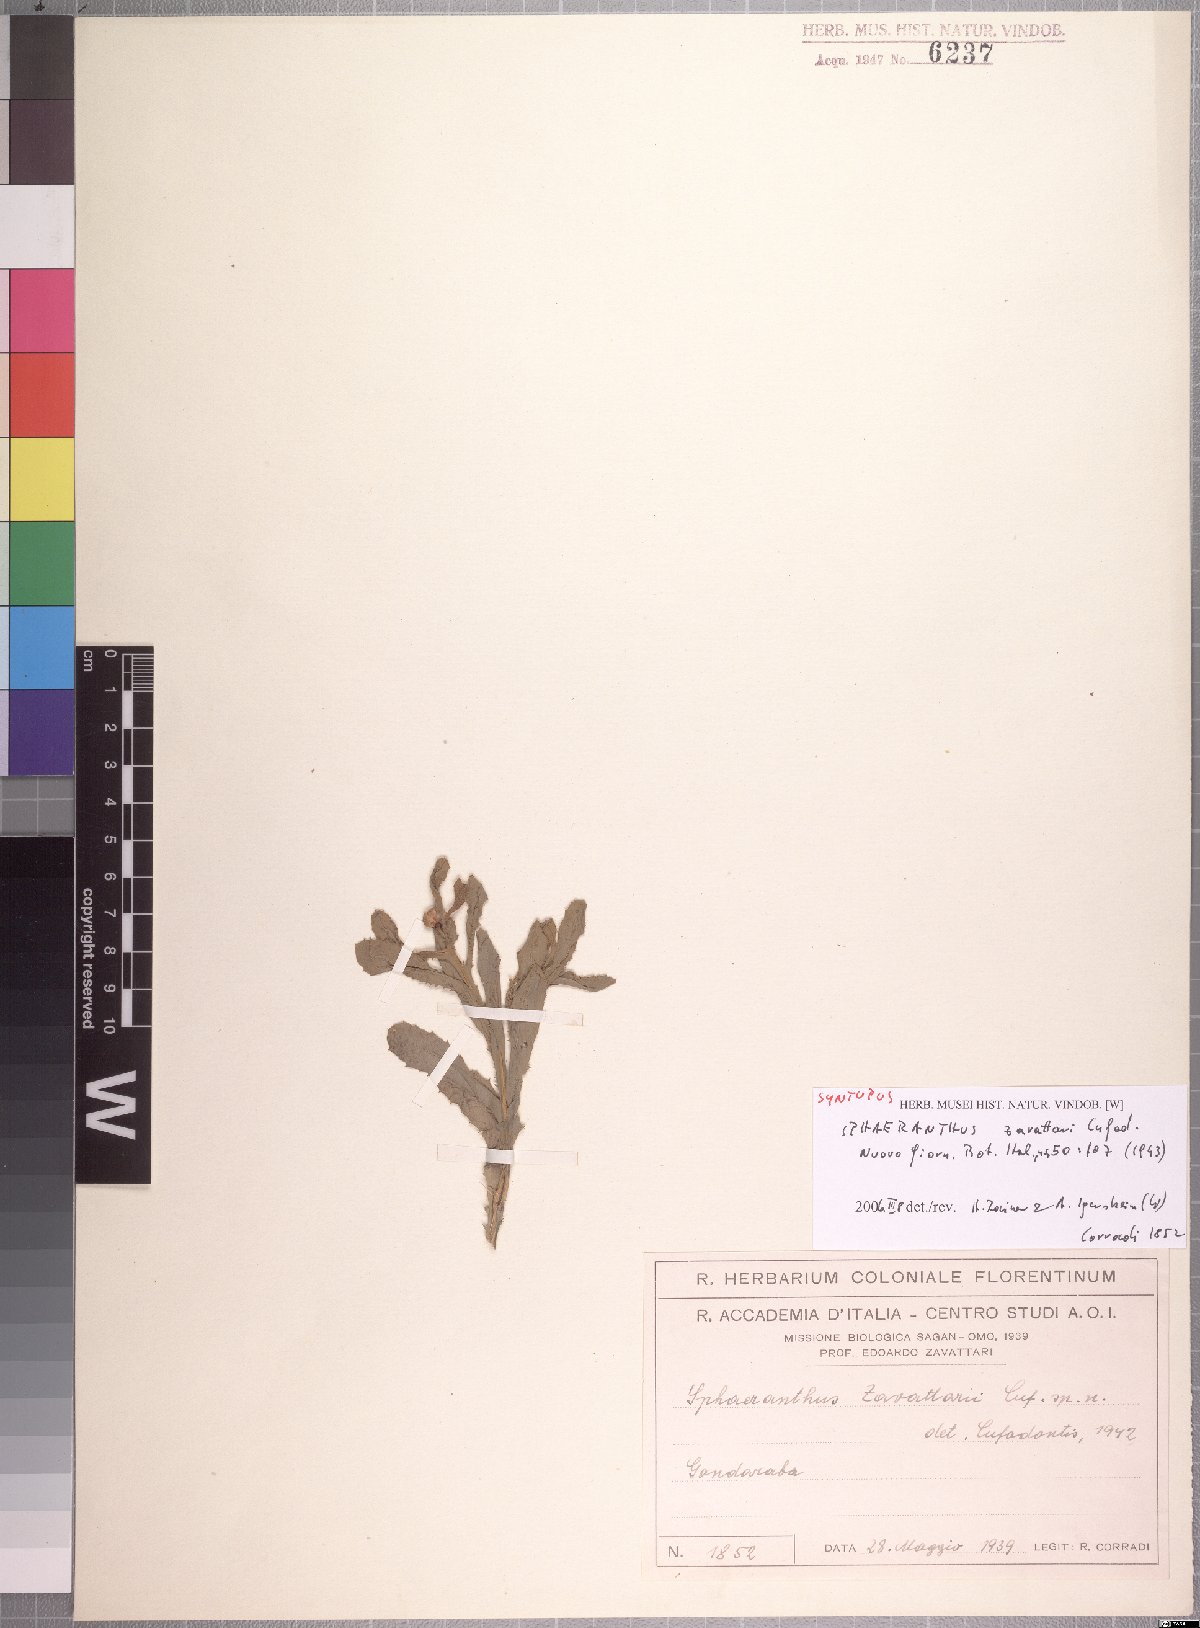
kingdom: Plantae
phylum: Tracheophyta
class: Magnoliopsida
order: Asterales
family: Asteraceae
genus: Sphaeranthus
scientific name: Sphaeranthus zavattarii
